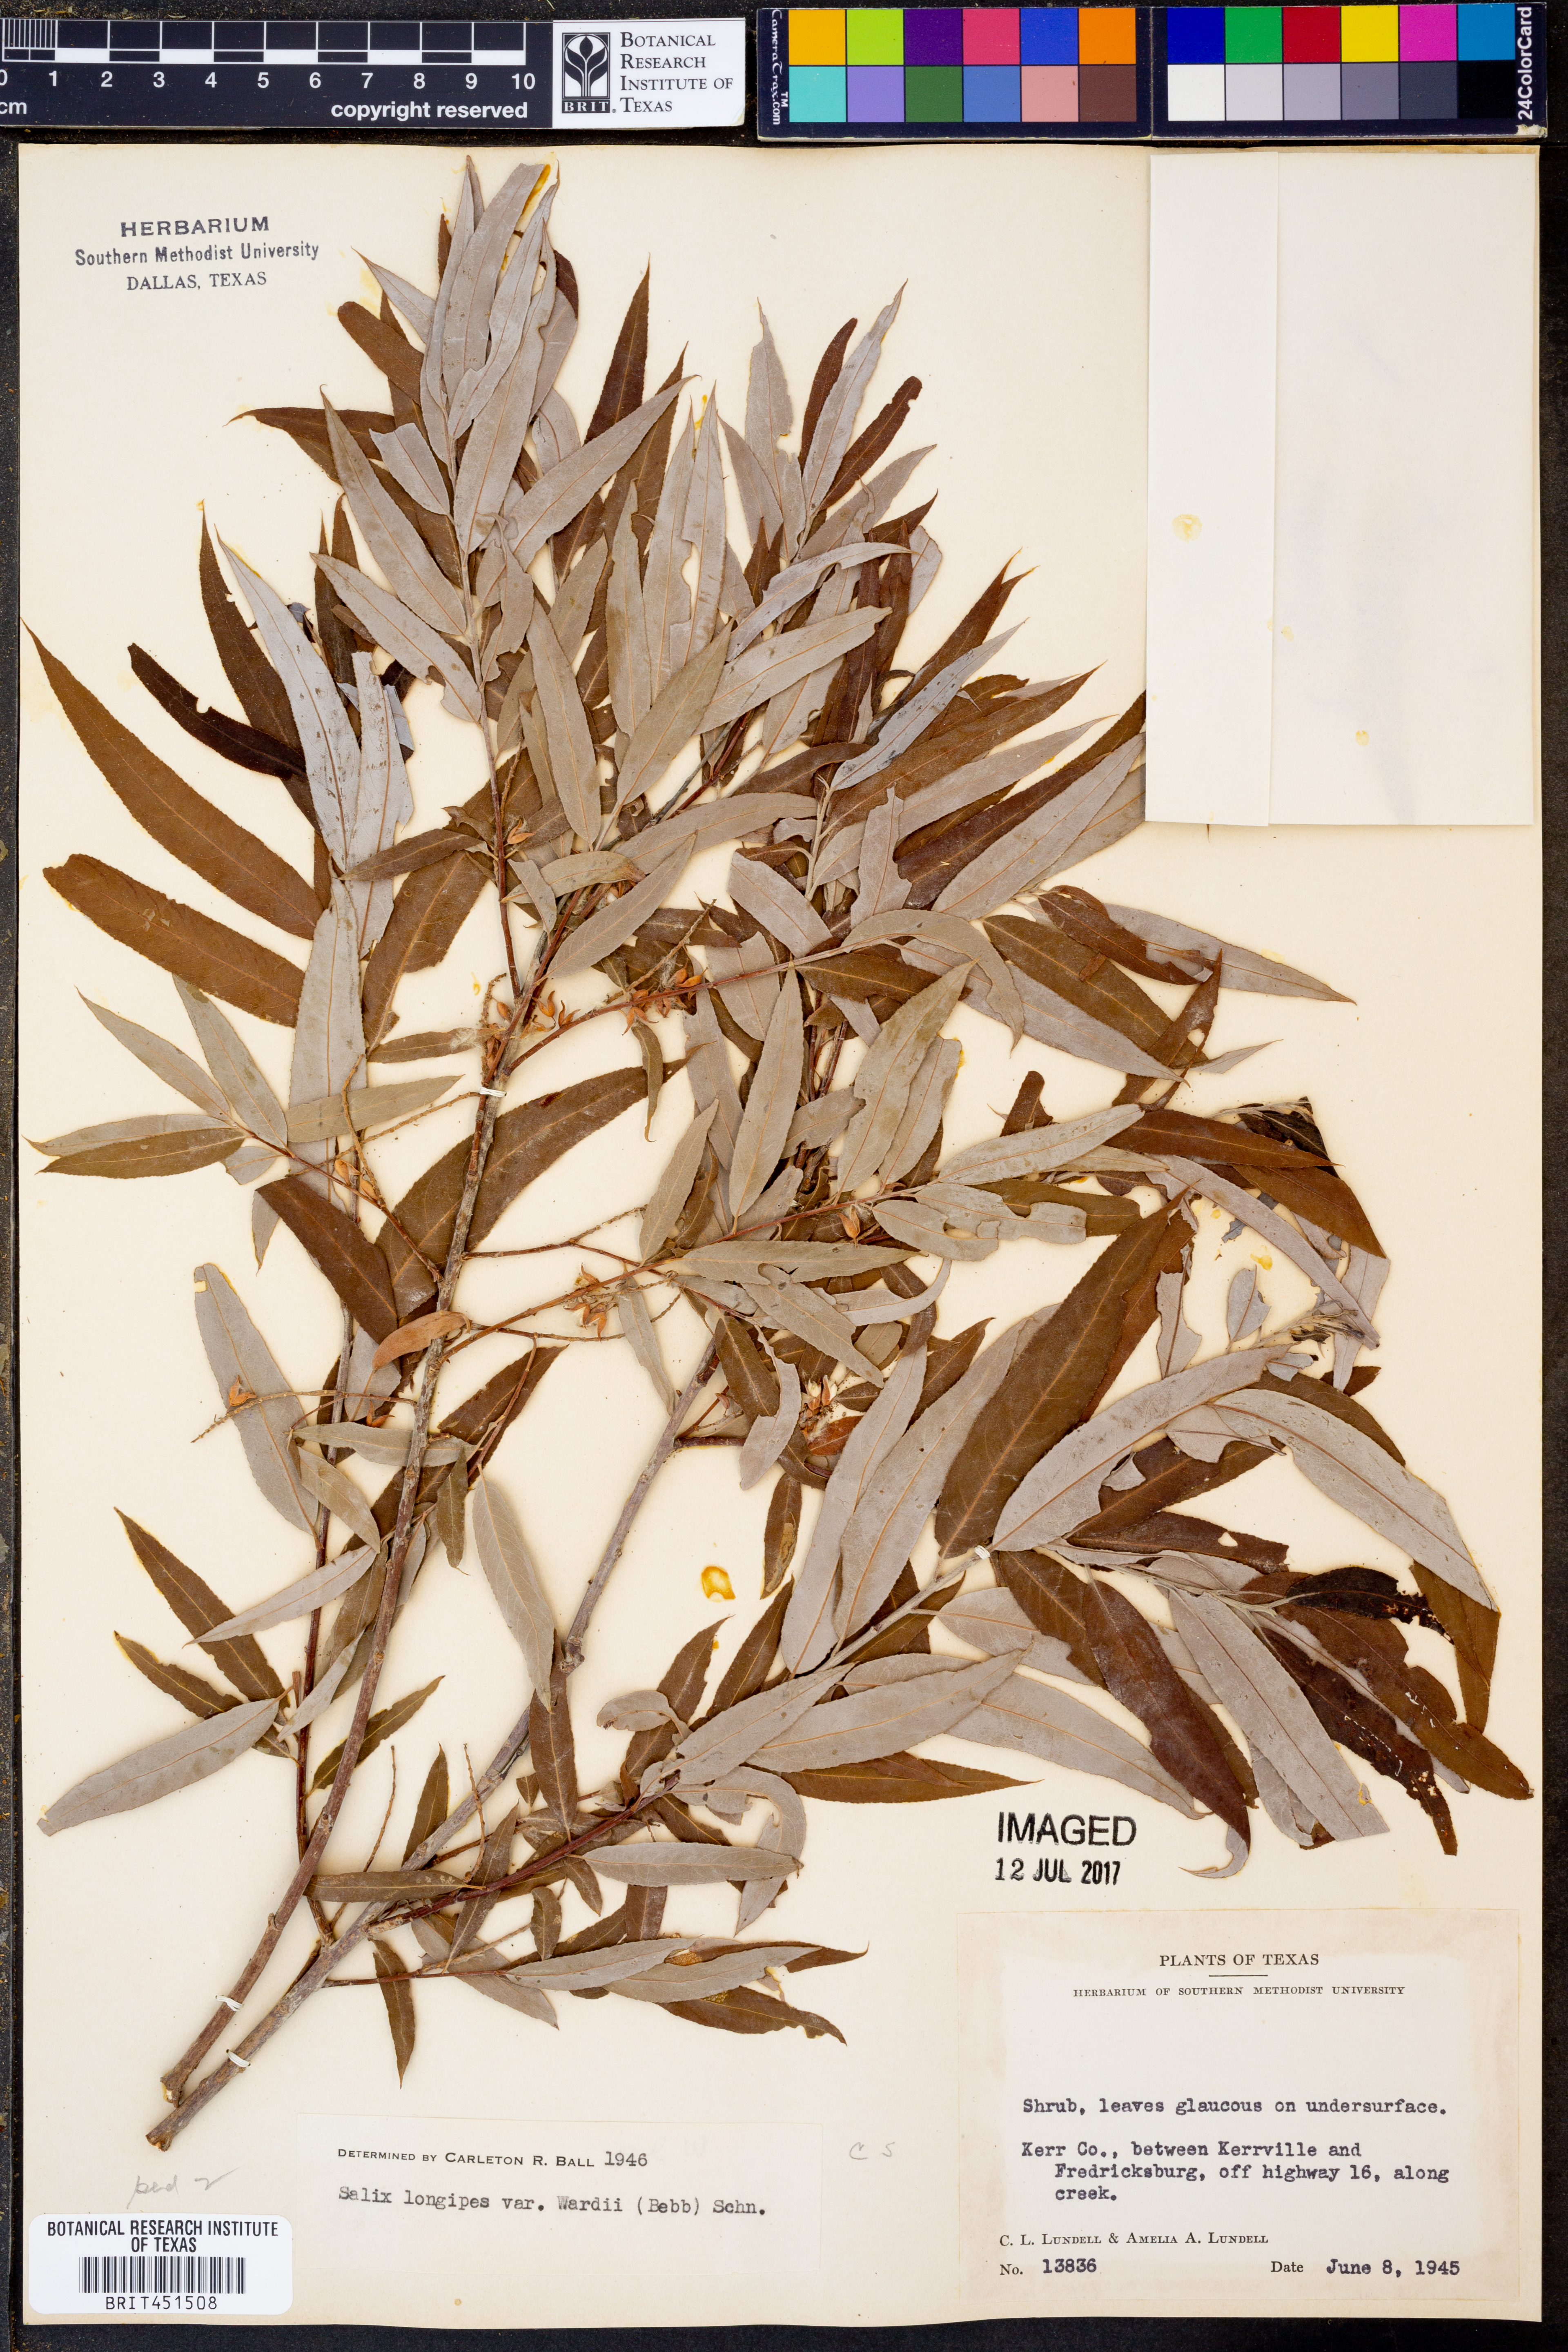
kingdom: Plantae
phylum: Tracheophyta
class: Magnoliopsida
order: Malpighiales
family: Salicaceae
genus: Salix
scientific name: Salix caroliniana
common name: Carolina willow
